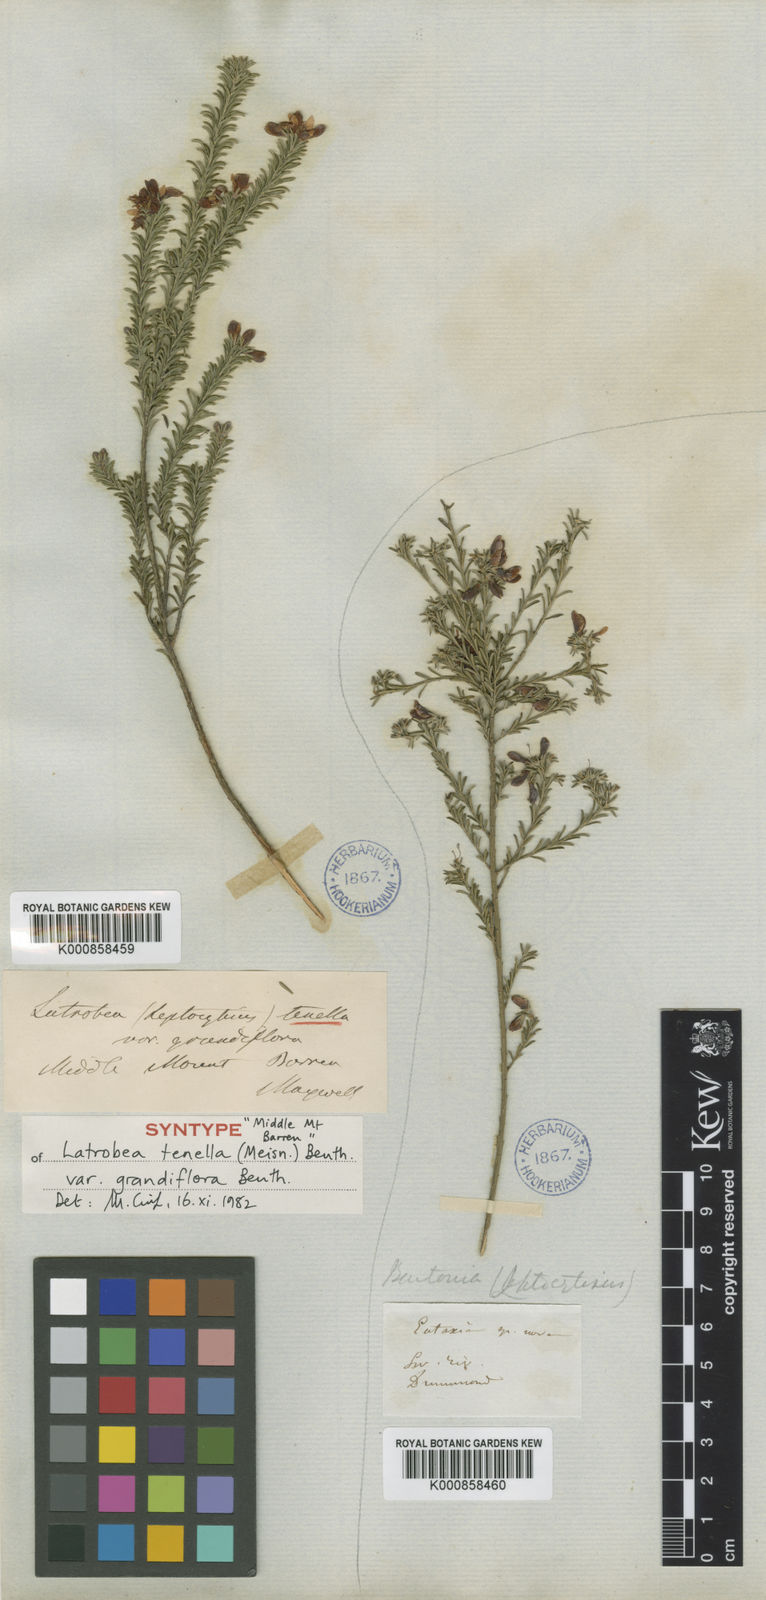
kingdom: Plantae
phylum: Tracheophyta
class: Magnoliopsida
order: Fabales
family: Fabaceae
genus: Latrobea
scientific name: Latrobea tenella
